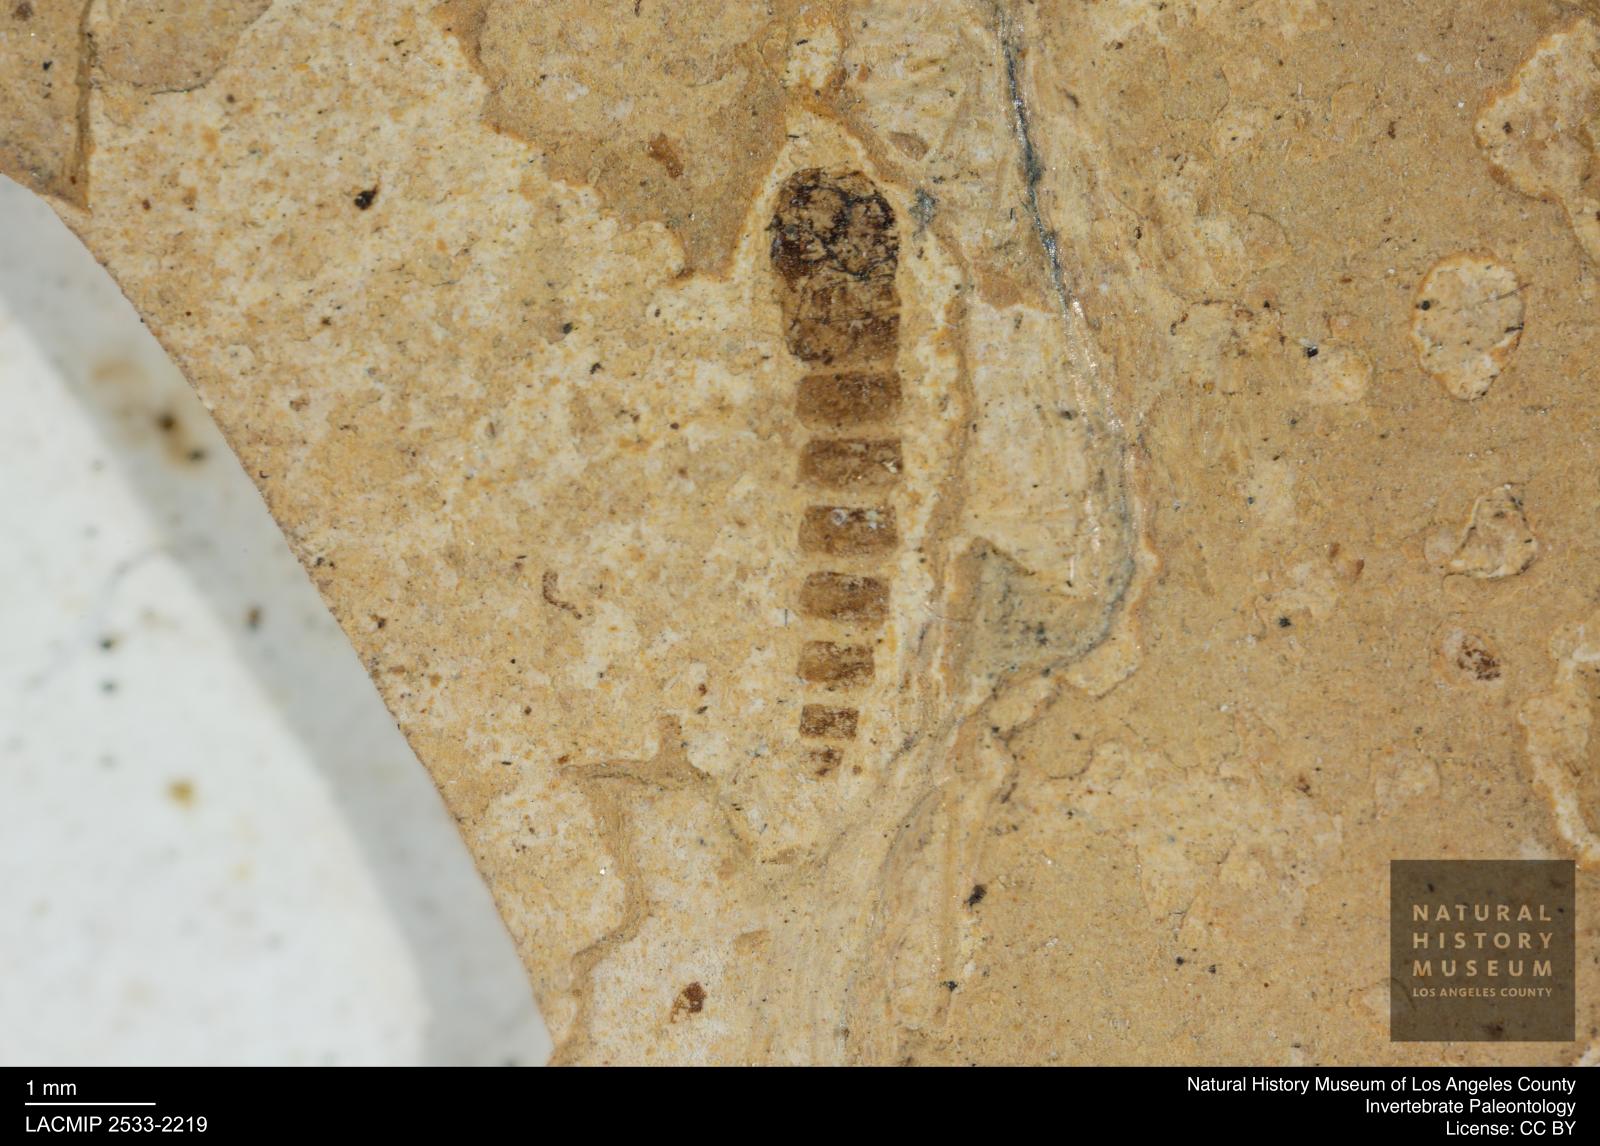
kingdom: Animalia
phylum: Arthropoda
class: Insecta
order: Diptera
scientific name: Diptera
